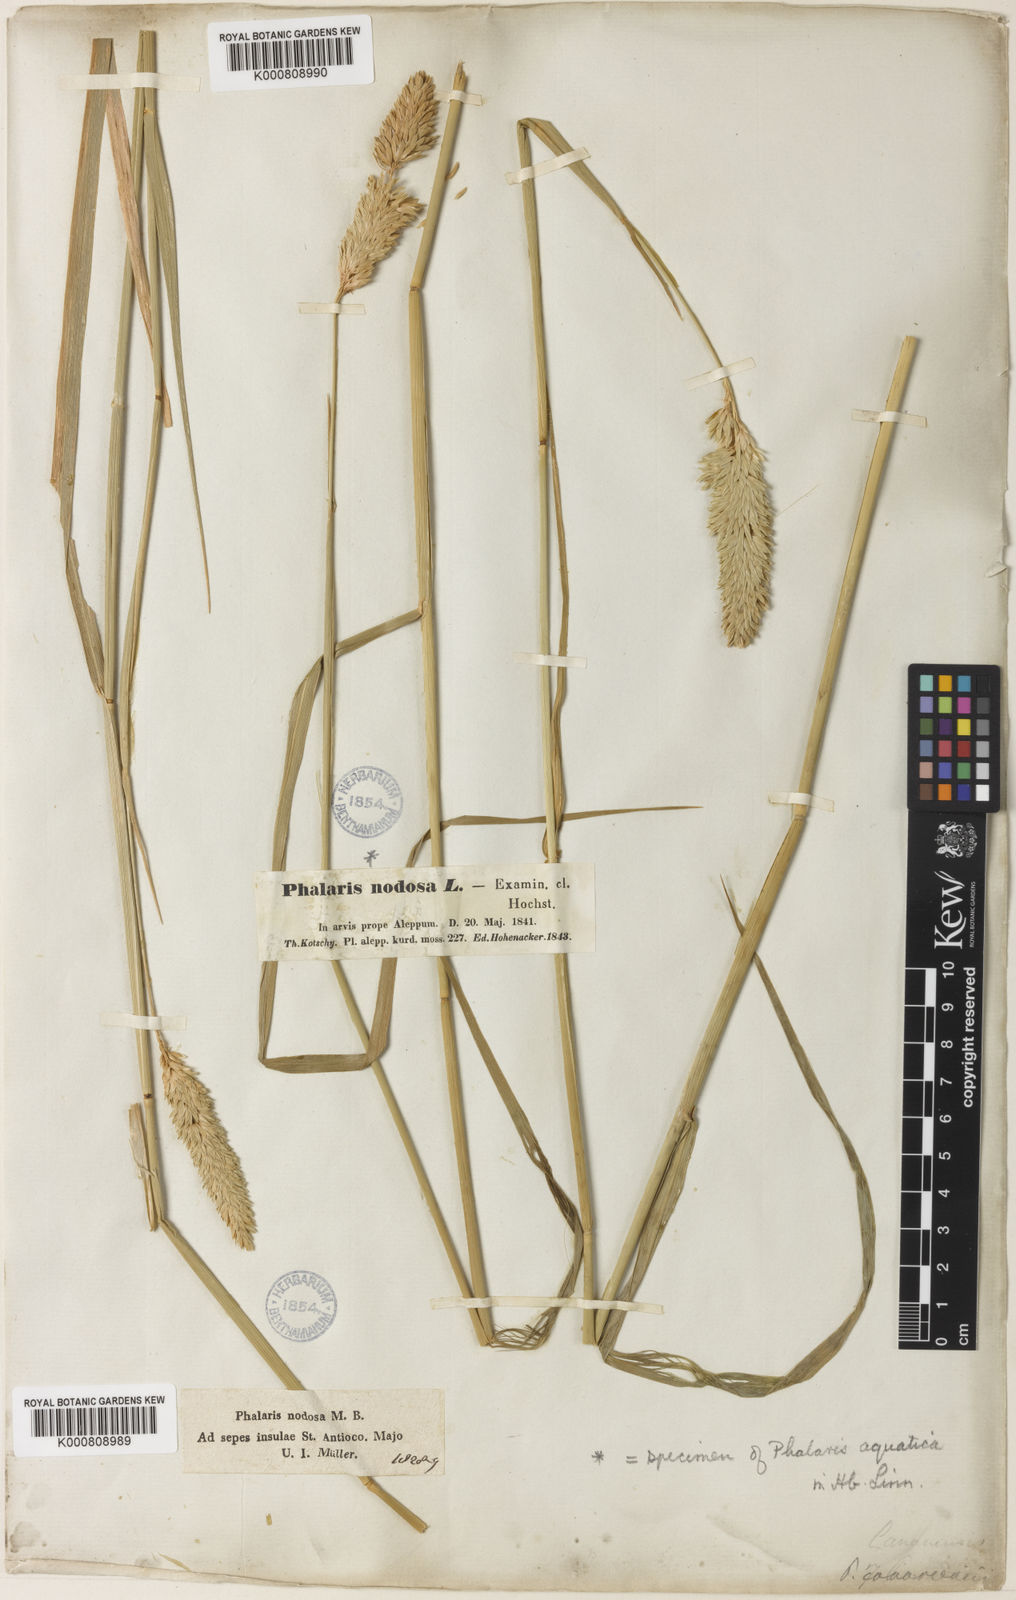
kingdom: Plantae
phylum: Tracheophyta
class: Liliopsida
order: Poales
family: Poaceae
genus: Phalaris
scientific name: Phalaris aquatica
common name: Bulbous canary-grass
